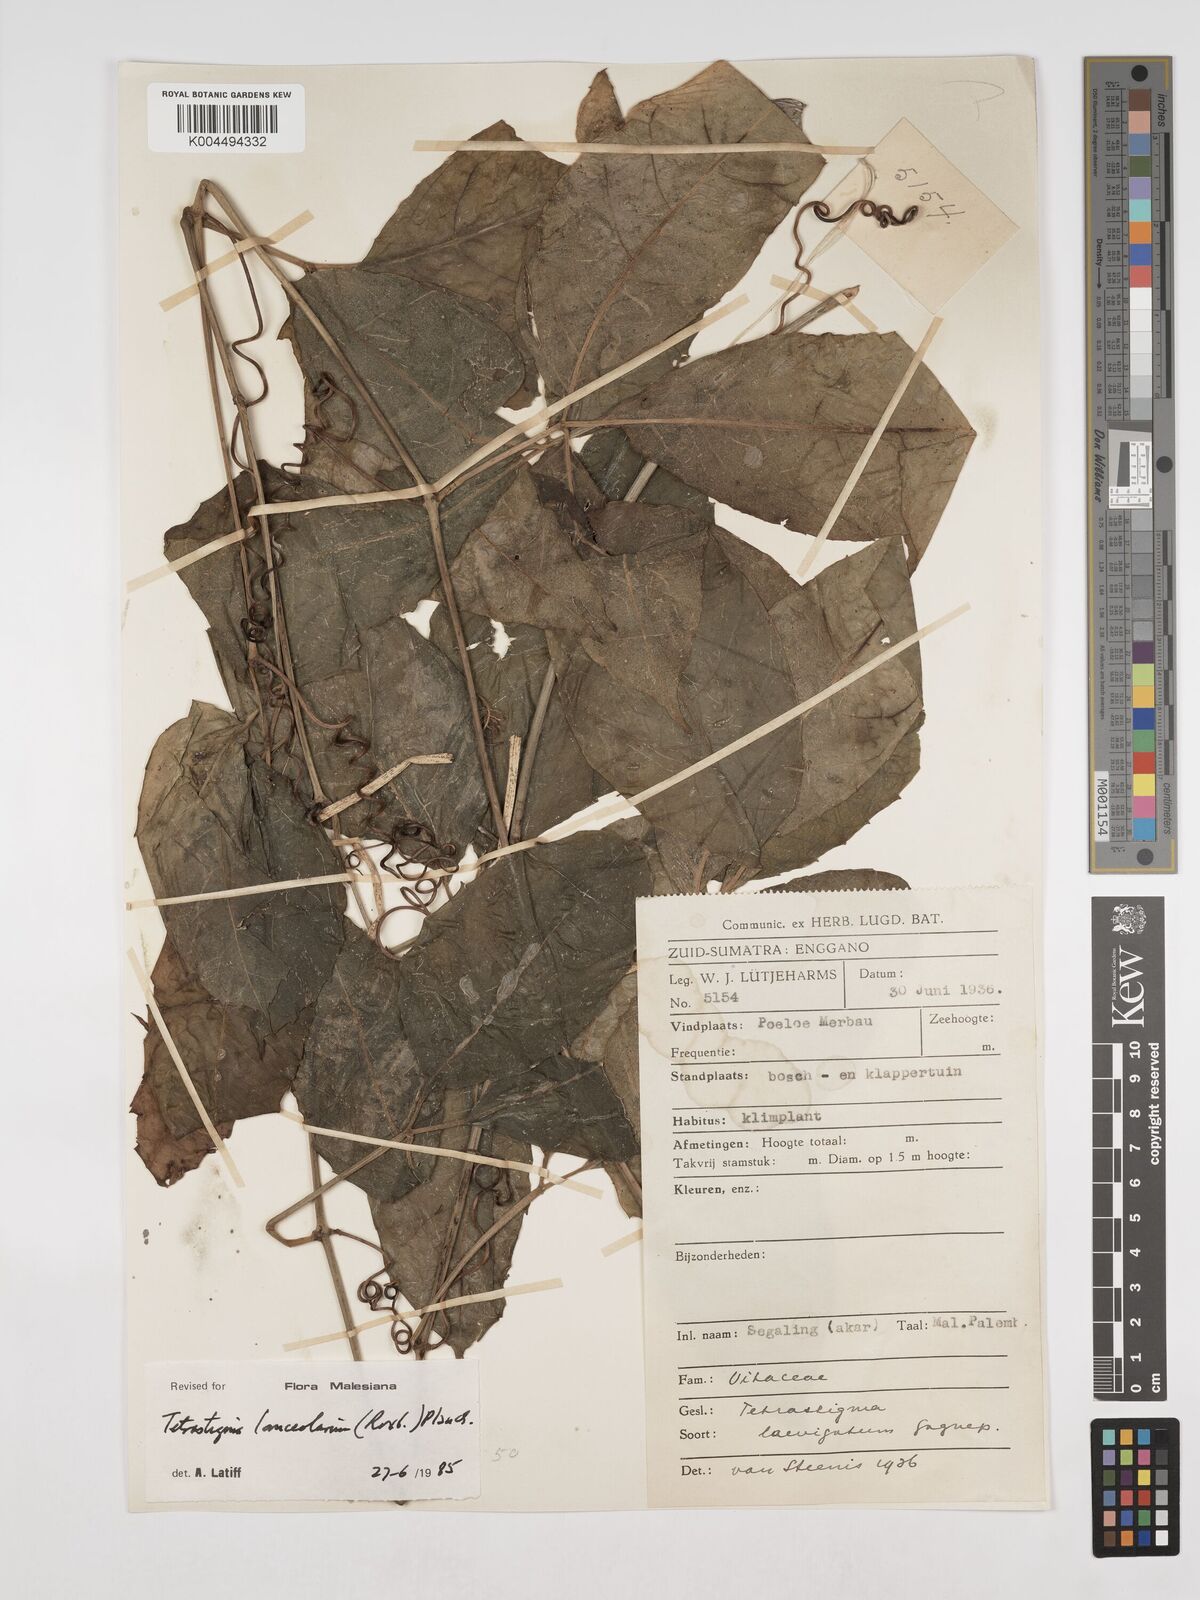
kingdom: Plantae
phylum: Tracheophyta
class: Magnoliopsida
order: Vitales
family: Vitaceae
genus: Tetrastigma
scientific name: Tetrastigma leucostaphylum
